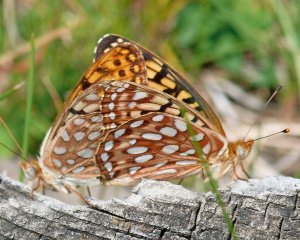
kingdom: Animalia
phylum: Arthropoda
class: Insecta
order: Lepidoptera
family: Nymphalidae
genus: Speyeria
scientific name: Speyeria zerene
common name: Zerene Fritillary
